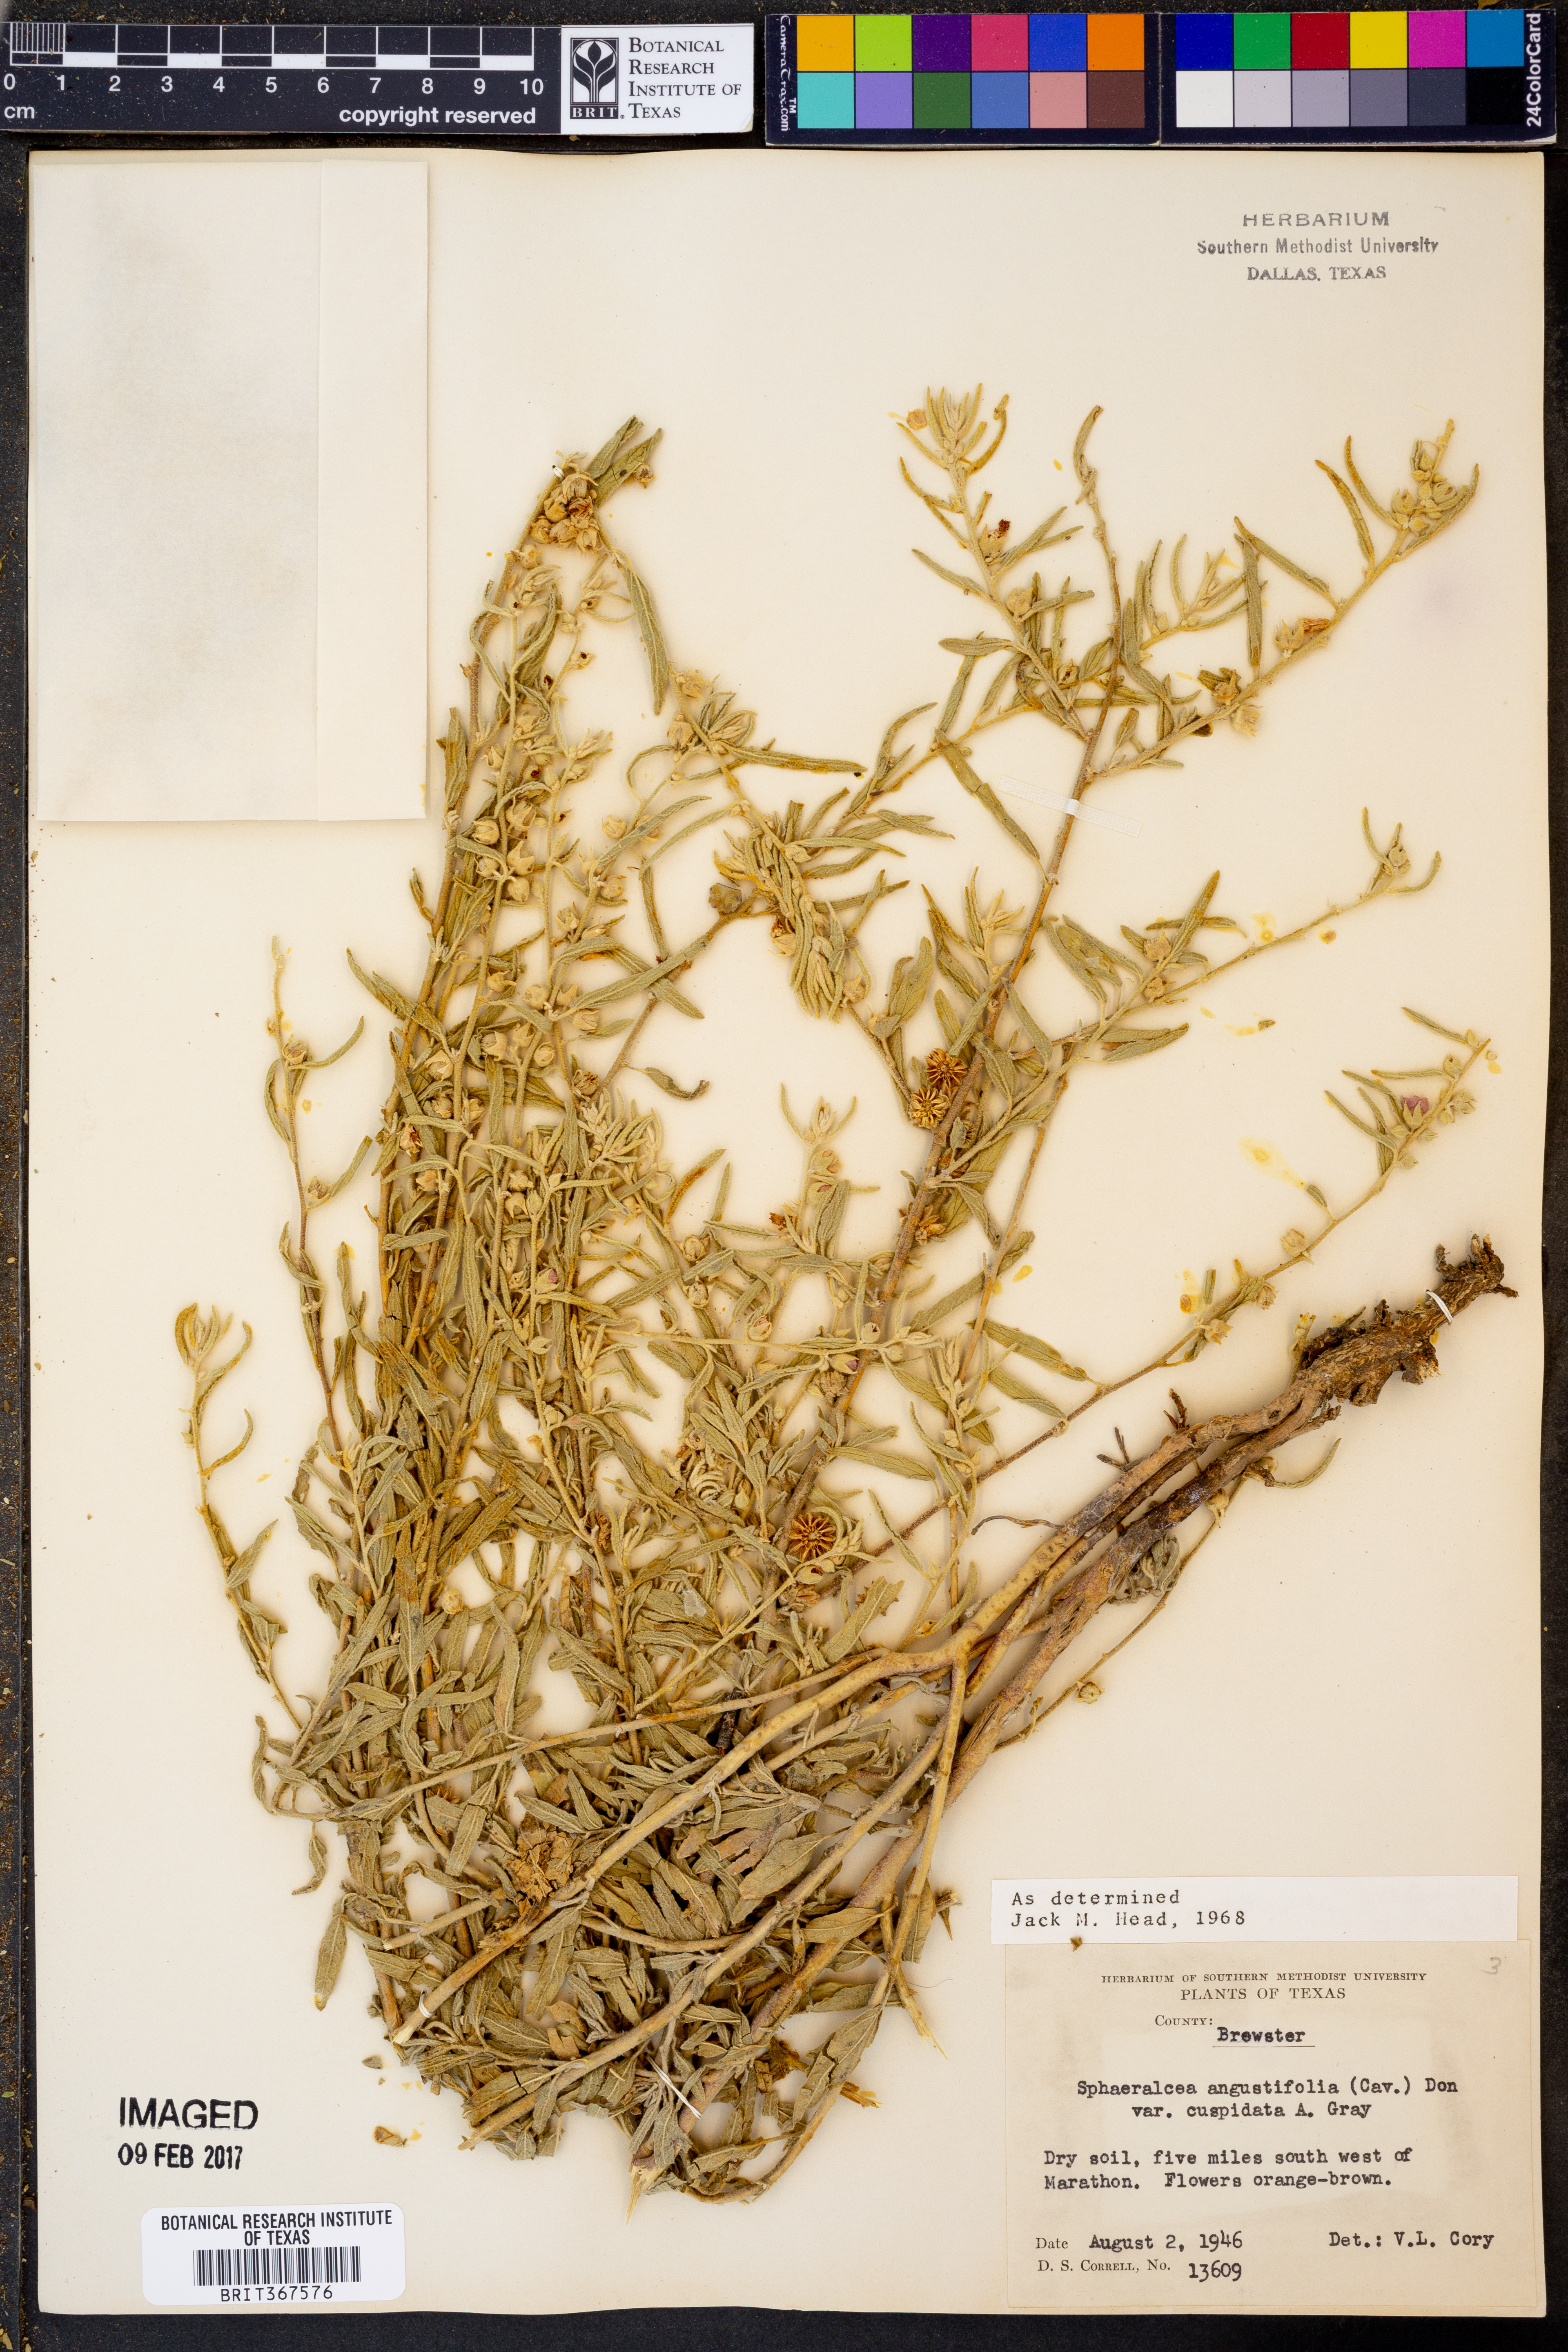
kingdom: Plantae
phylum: Tracheophyta
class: Magnoliopsida
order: Malvales
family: Malvaceae
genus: Sphaeralcea
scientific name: Sphaeralcea angustifolia
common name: Copper globe-mallow
